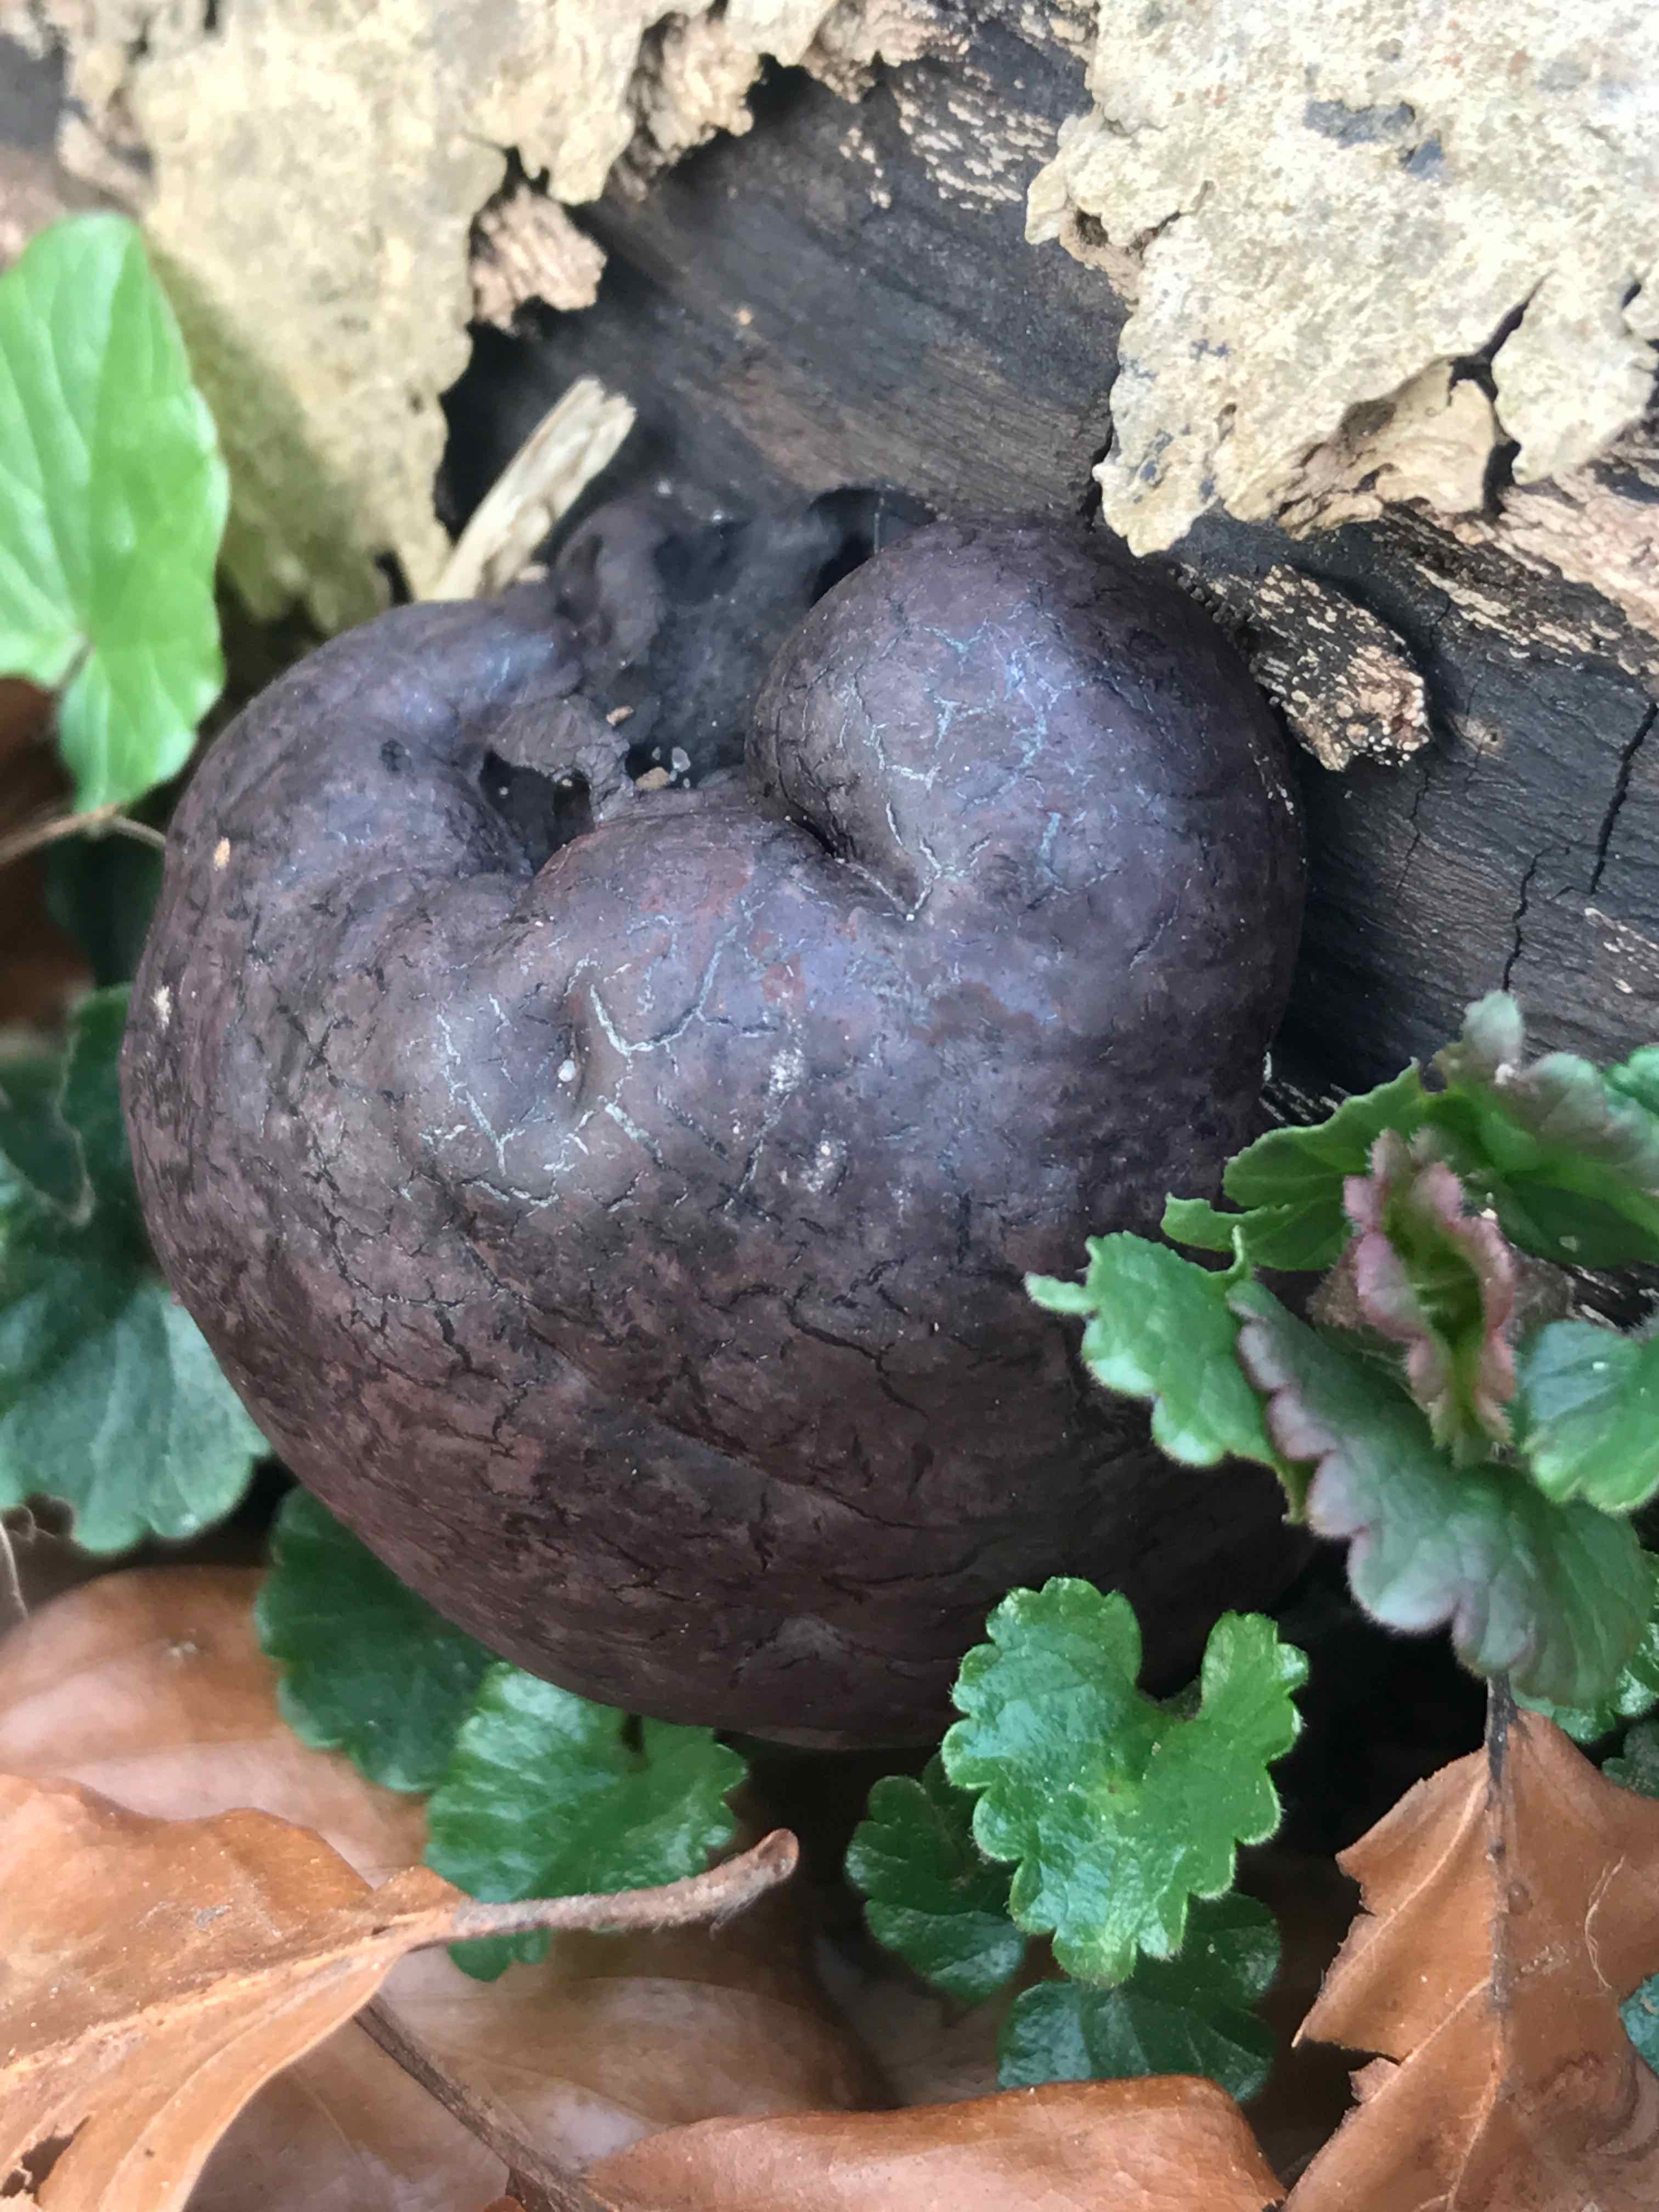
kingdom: Fungi
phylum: Ascomycota
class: Sordariomycetes
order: Xylariales
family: Hypoxylaceae
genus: Daldinia
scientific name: Daldinia concentrica
